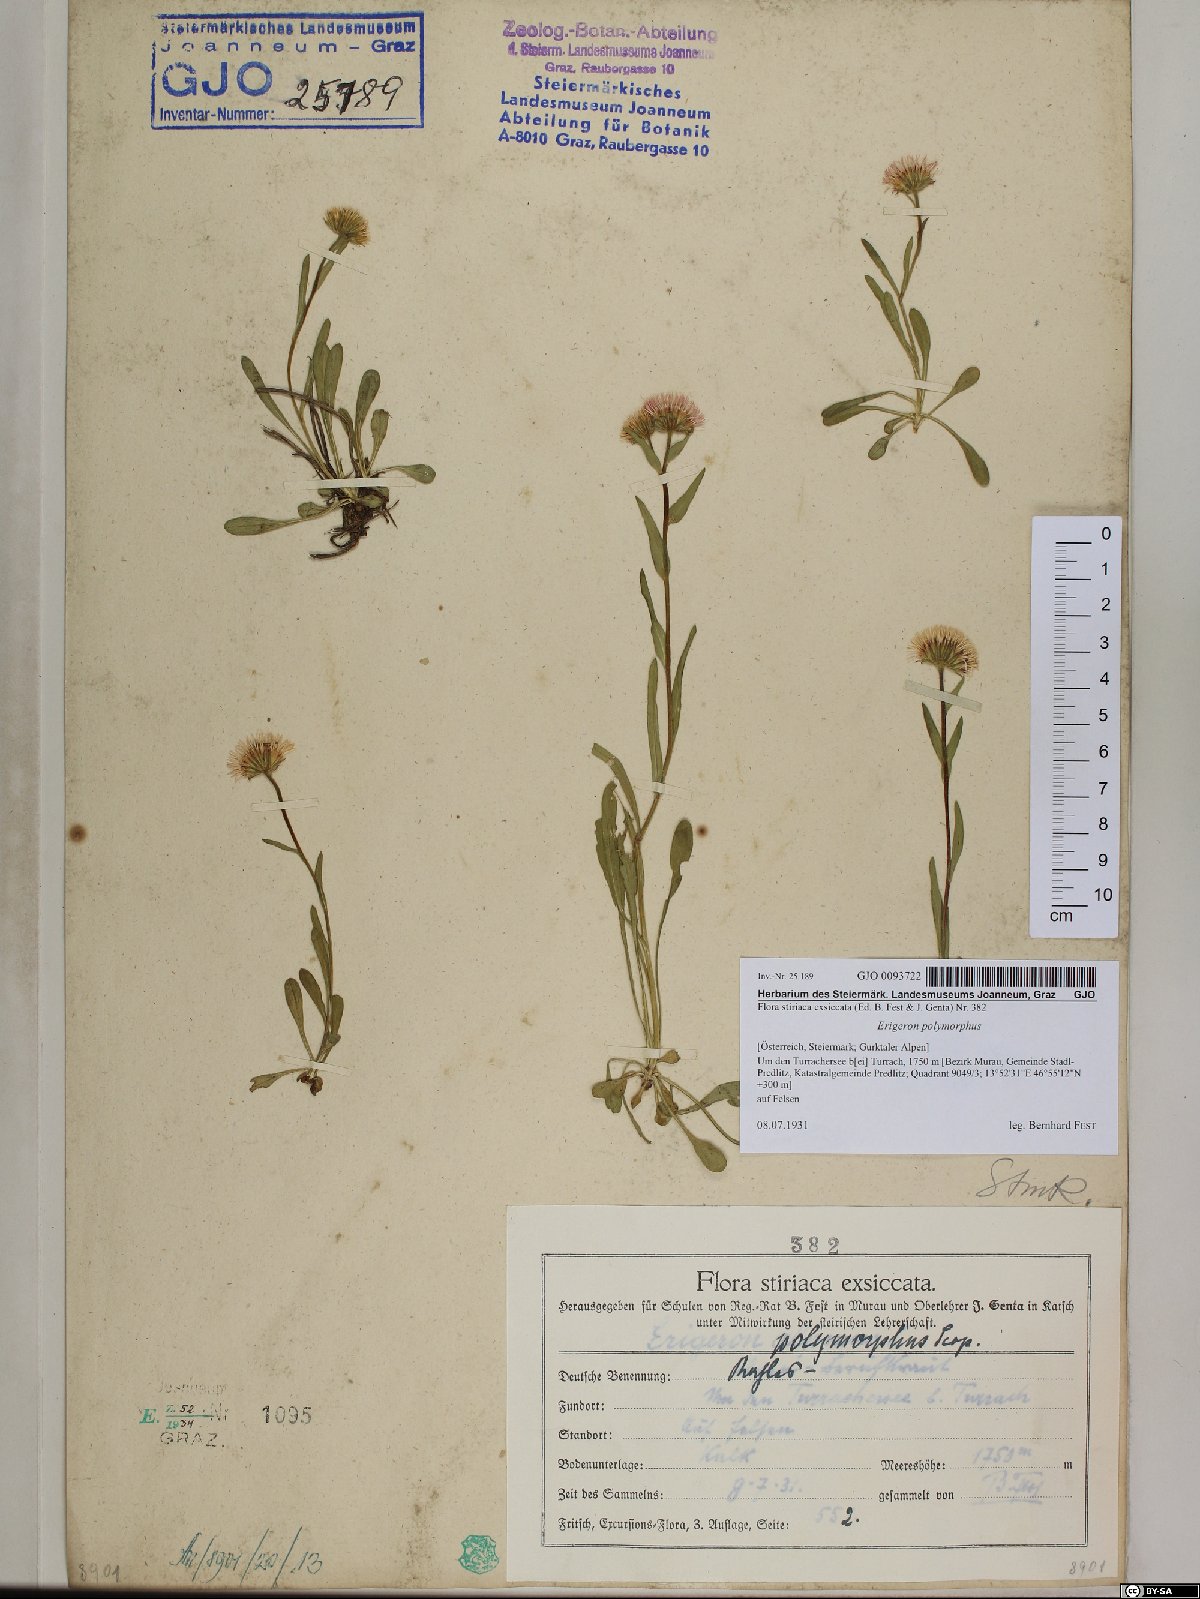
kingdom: Plantae
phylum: Tracheophyta
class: Magnoliopsida
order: Asterales
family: Asteraceae
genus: Erigeron
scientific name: Erigeron alpinus
